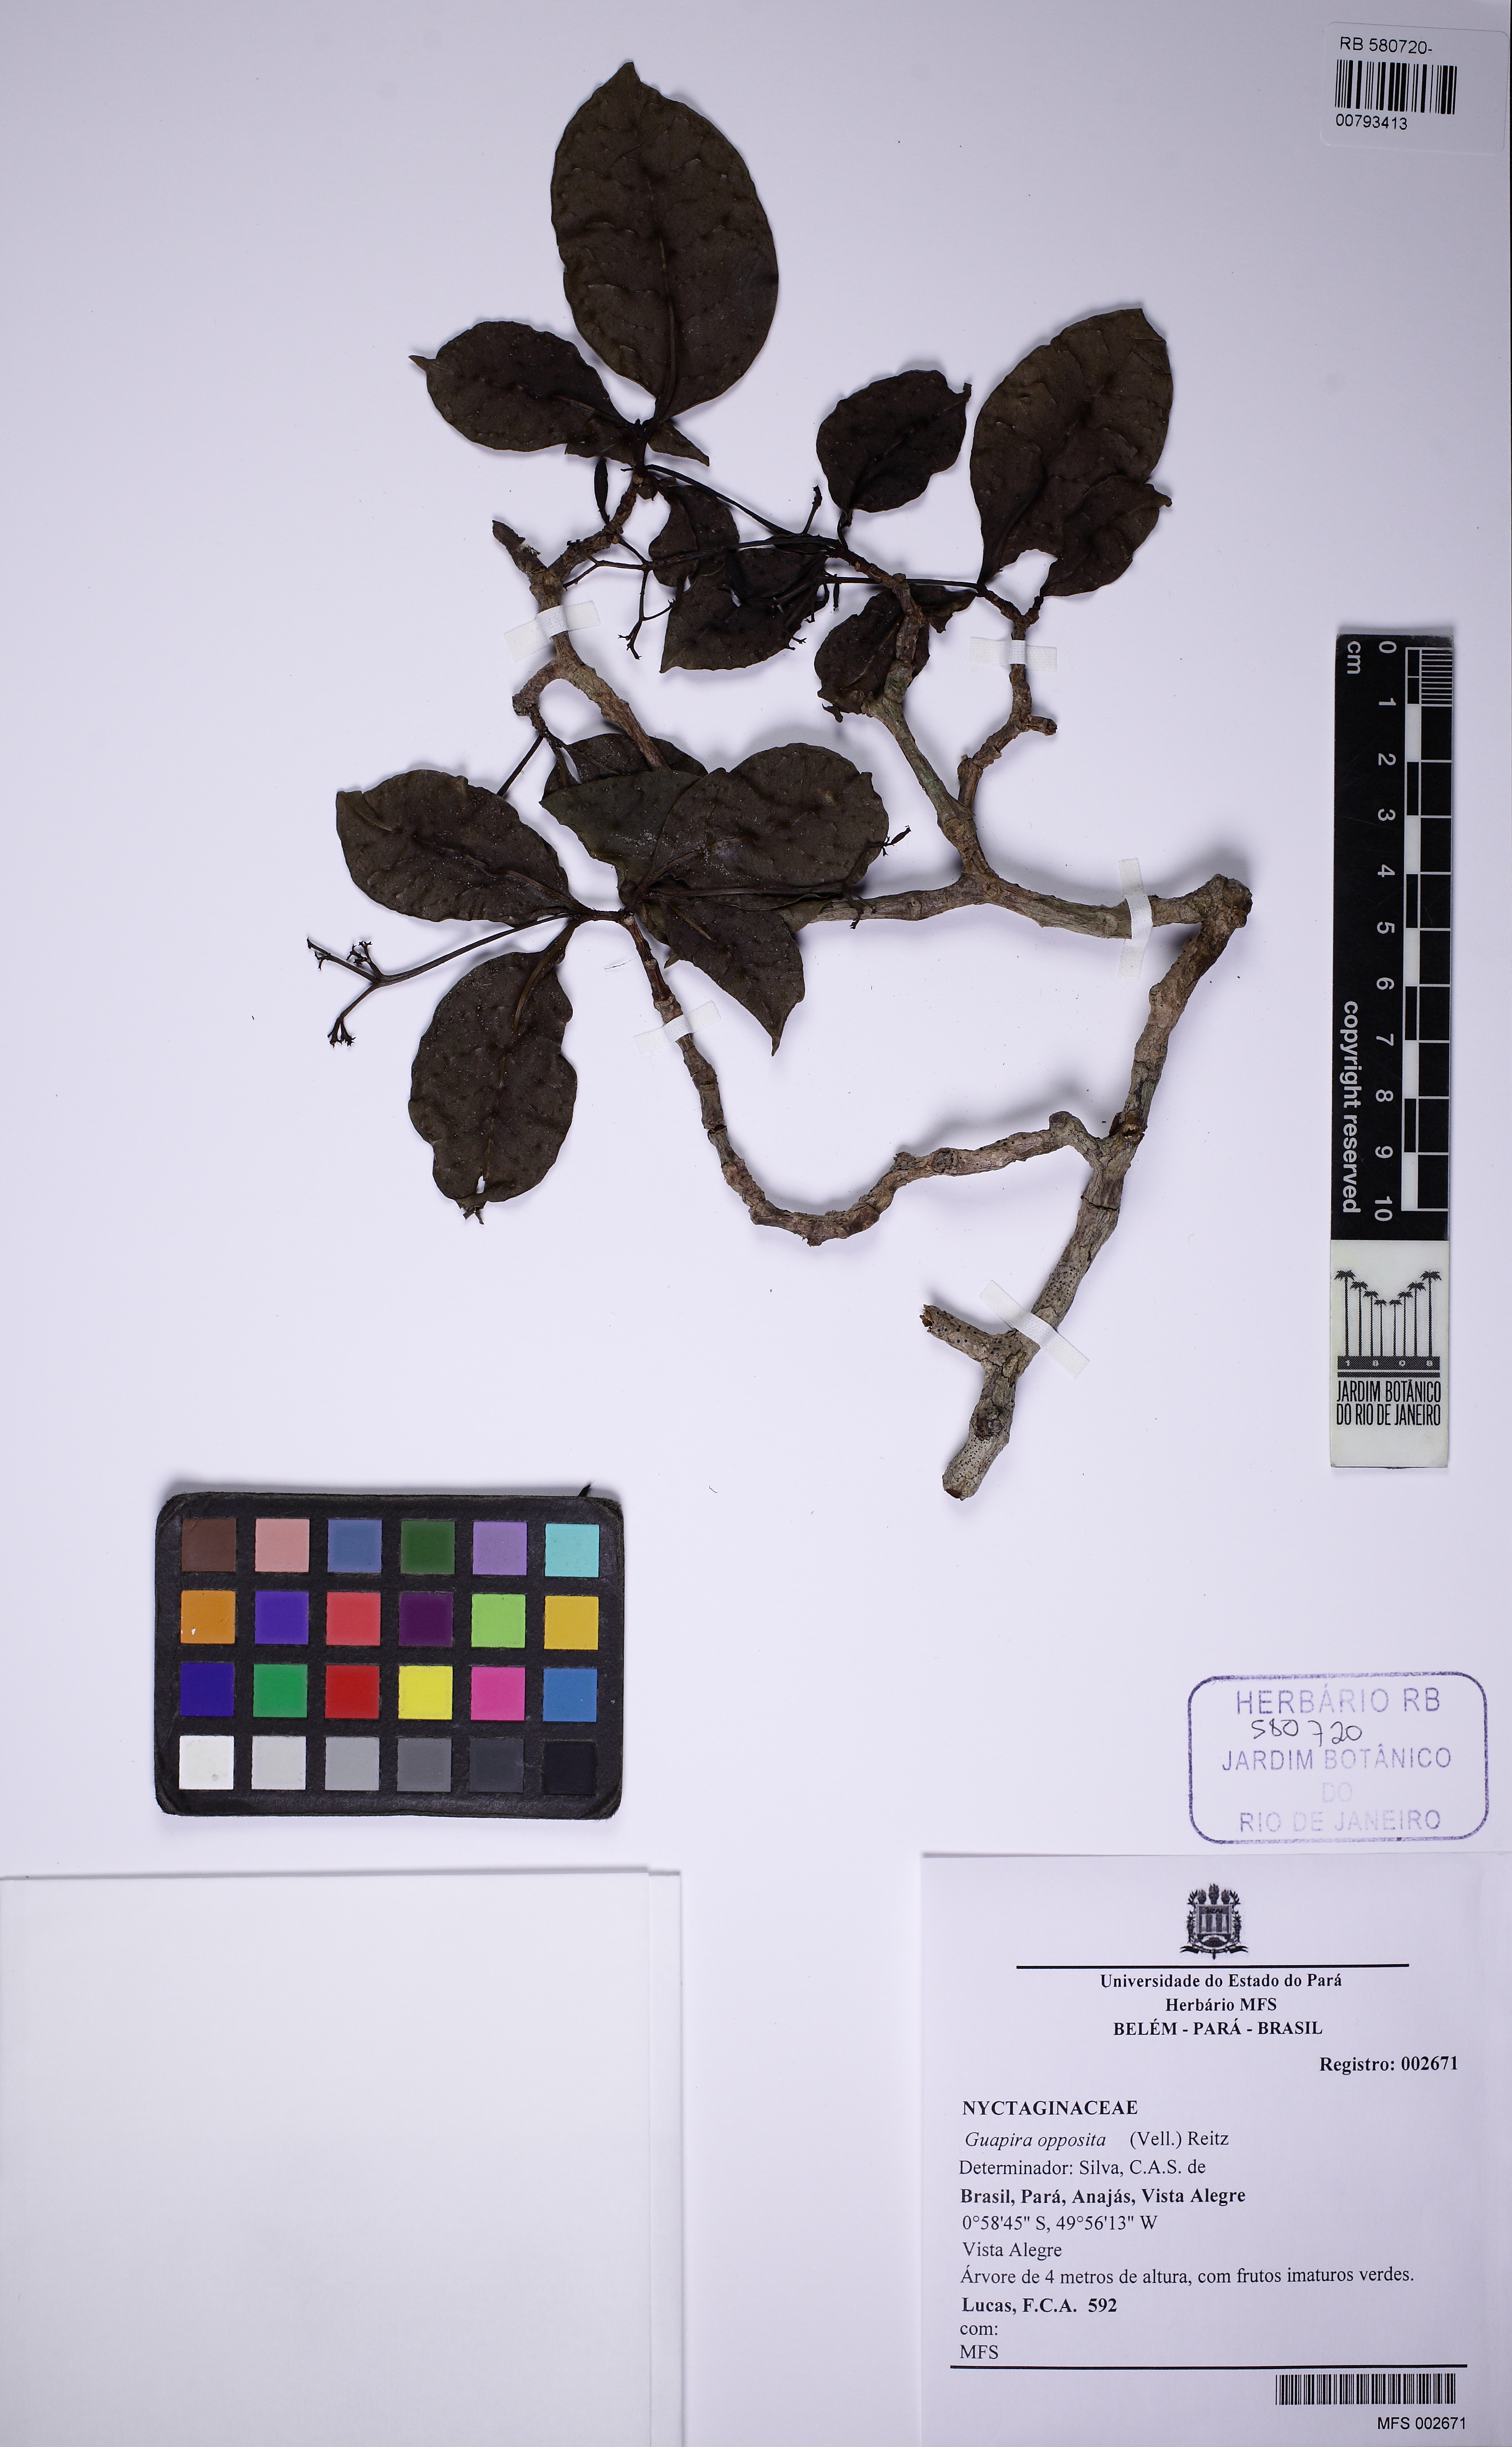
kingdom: Plantae
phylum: Tracheophyta
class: Magnoliopsida
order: Caryophyllales
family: Nyctaginaceae
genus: Guapira
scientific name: Guapira opposita
